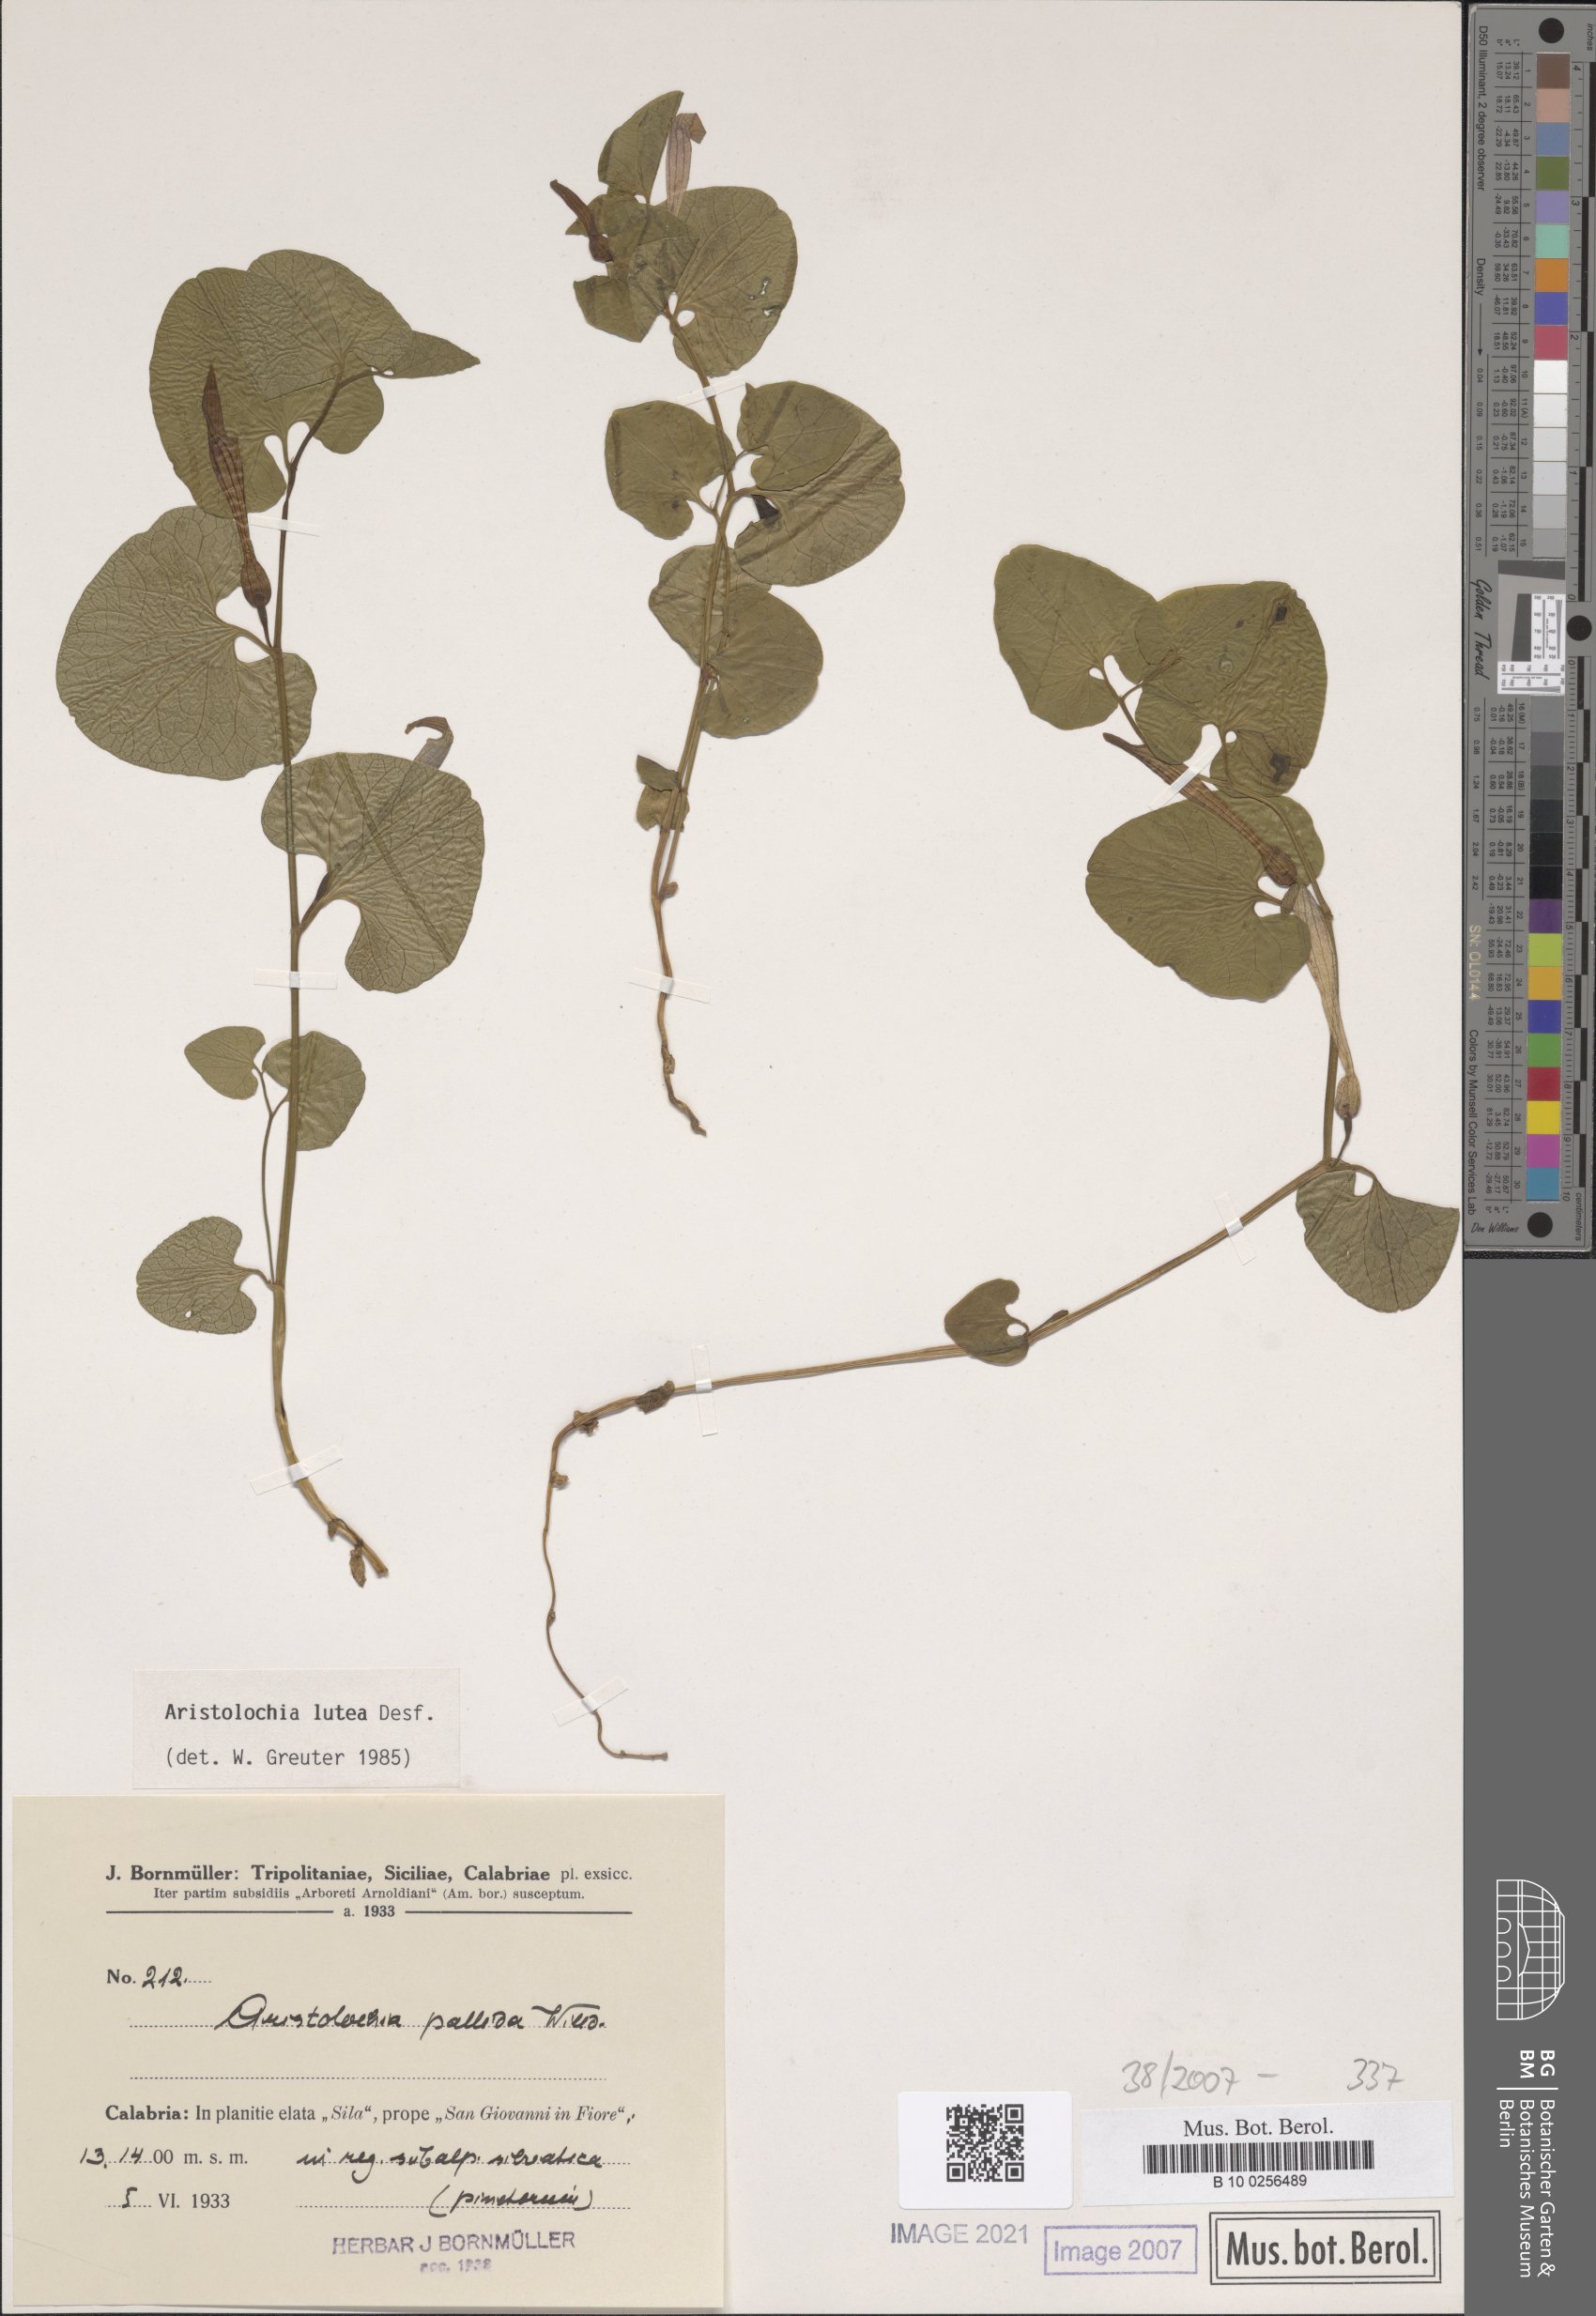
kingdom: Plantae
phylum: Tracheophyta
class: Magnoliopsida
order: Piperales
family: Aristolochiaceae
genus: Aristolochia
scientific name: Aristolochia lutea
